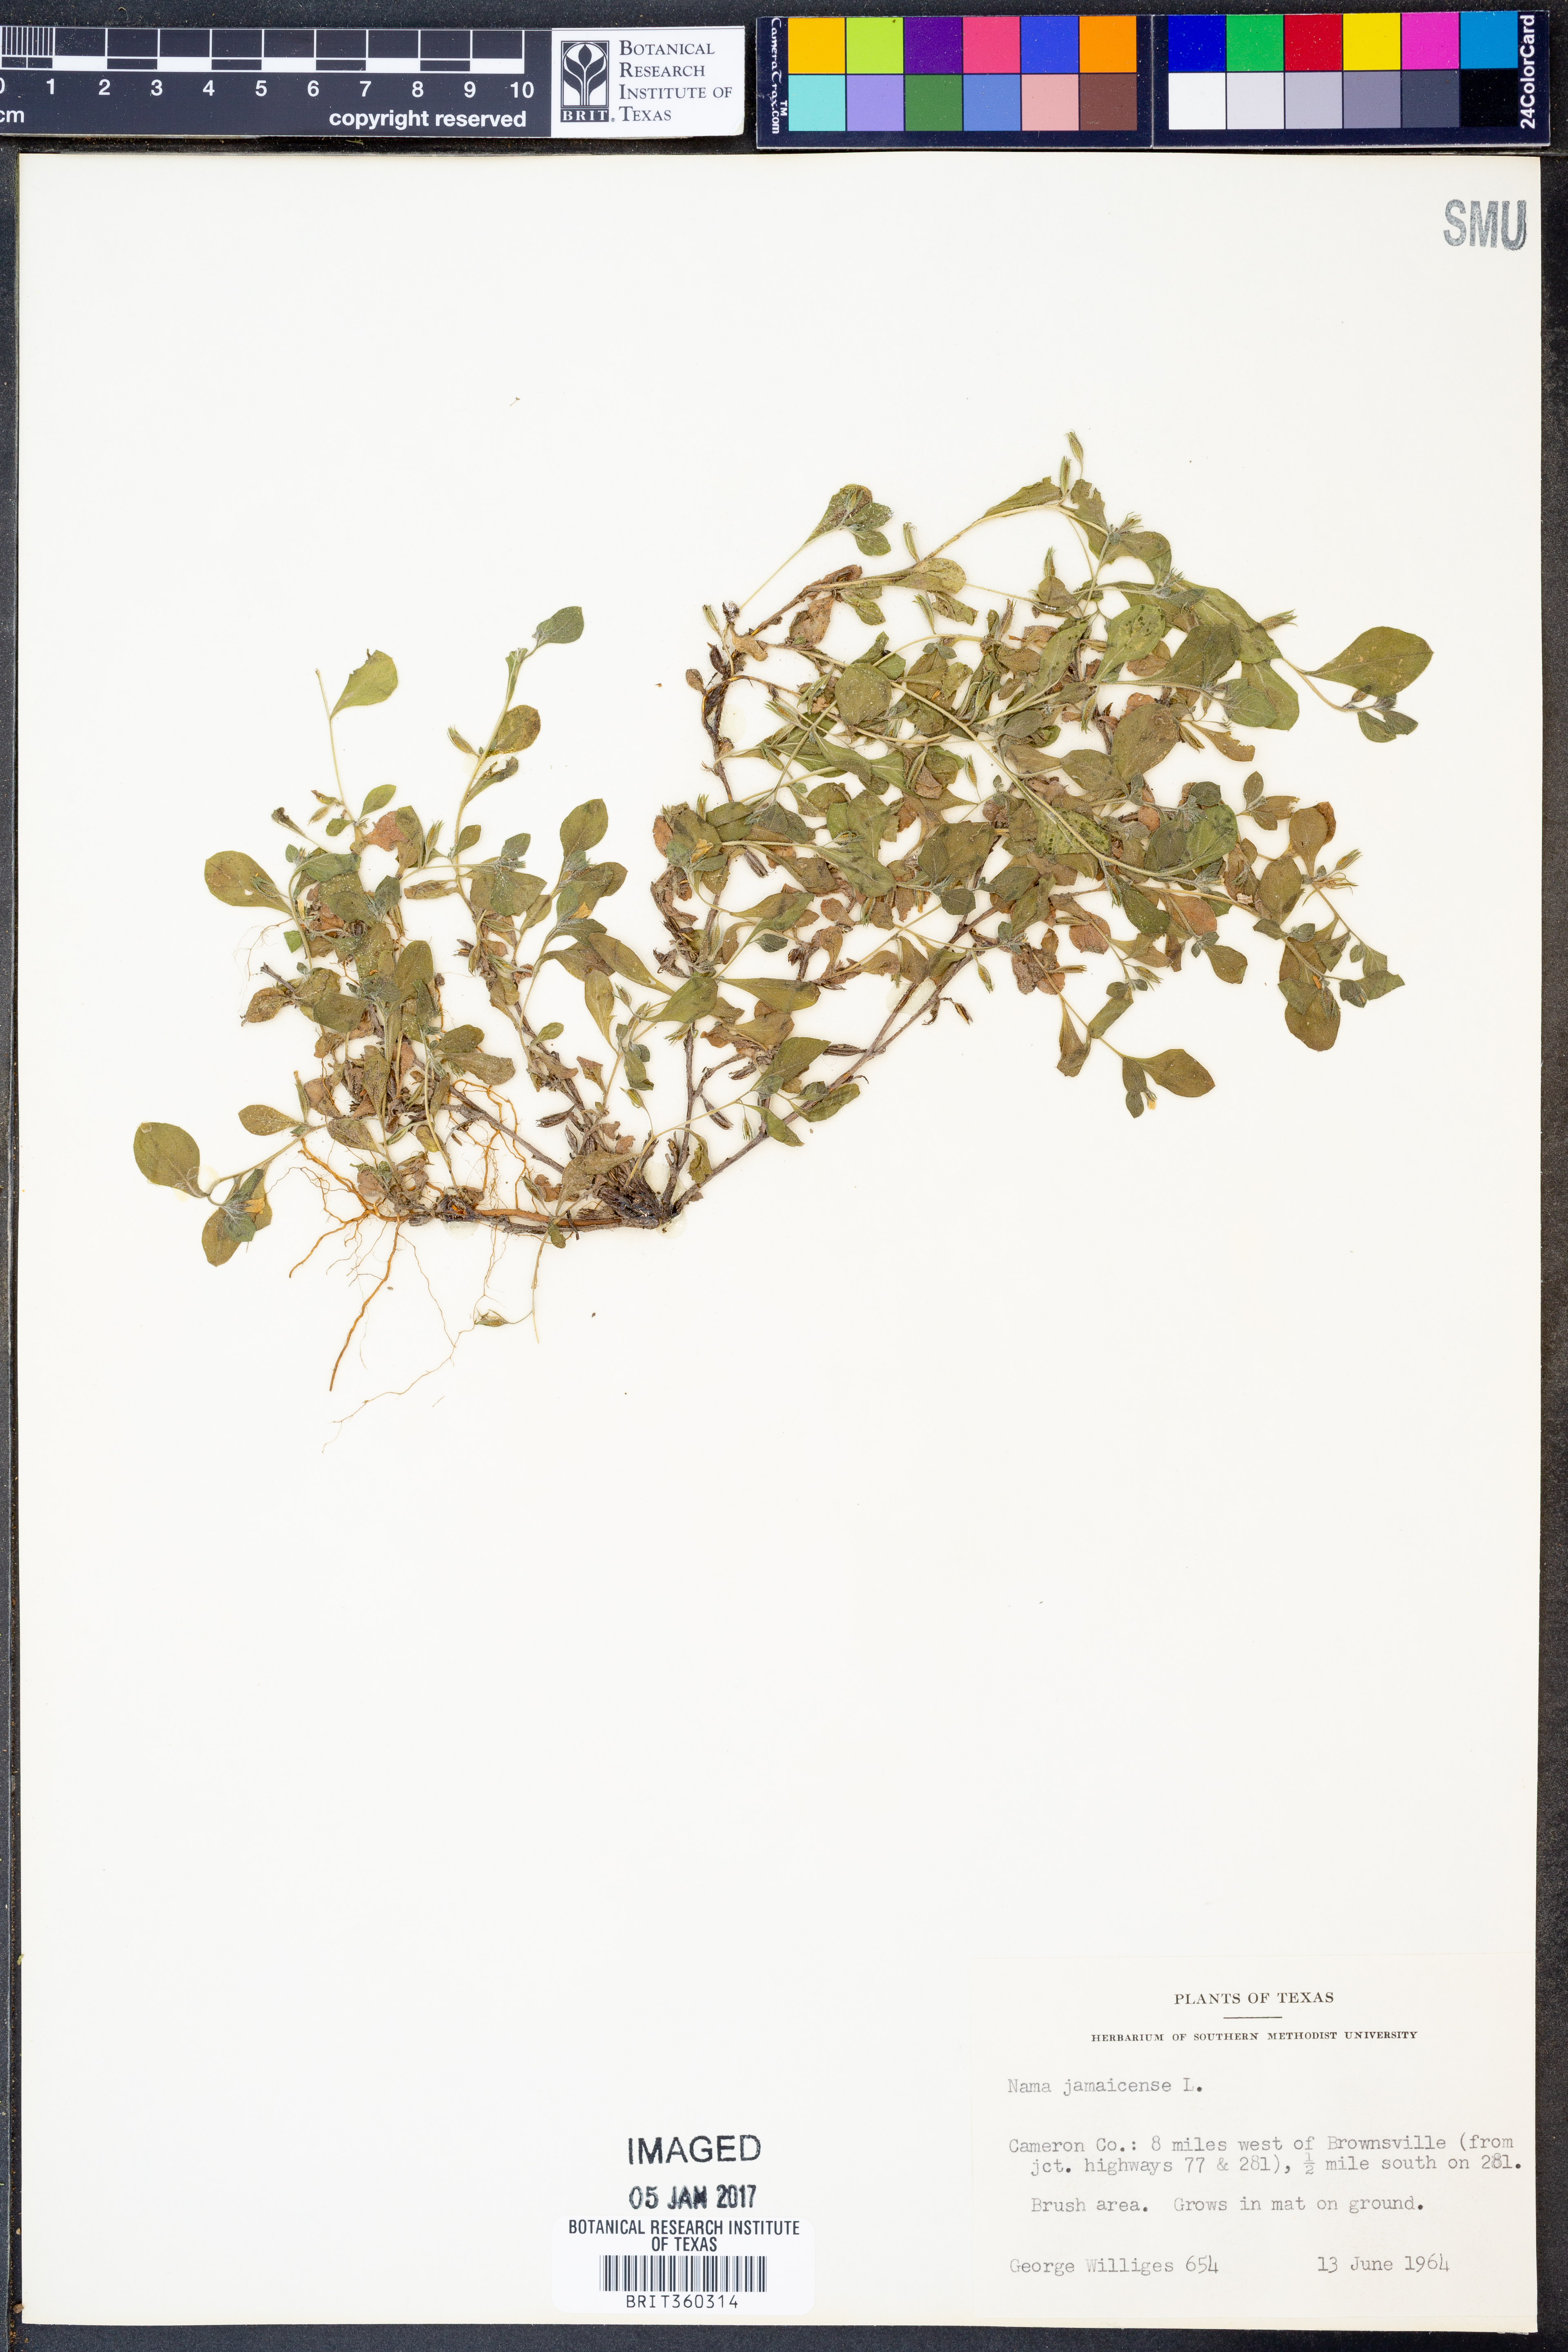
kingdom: Plantae
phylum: Tracheophyta
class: Magnoliopsida
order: Boraginales
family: Namaceae
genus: Nama
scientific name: Nama jamaicense
